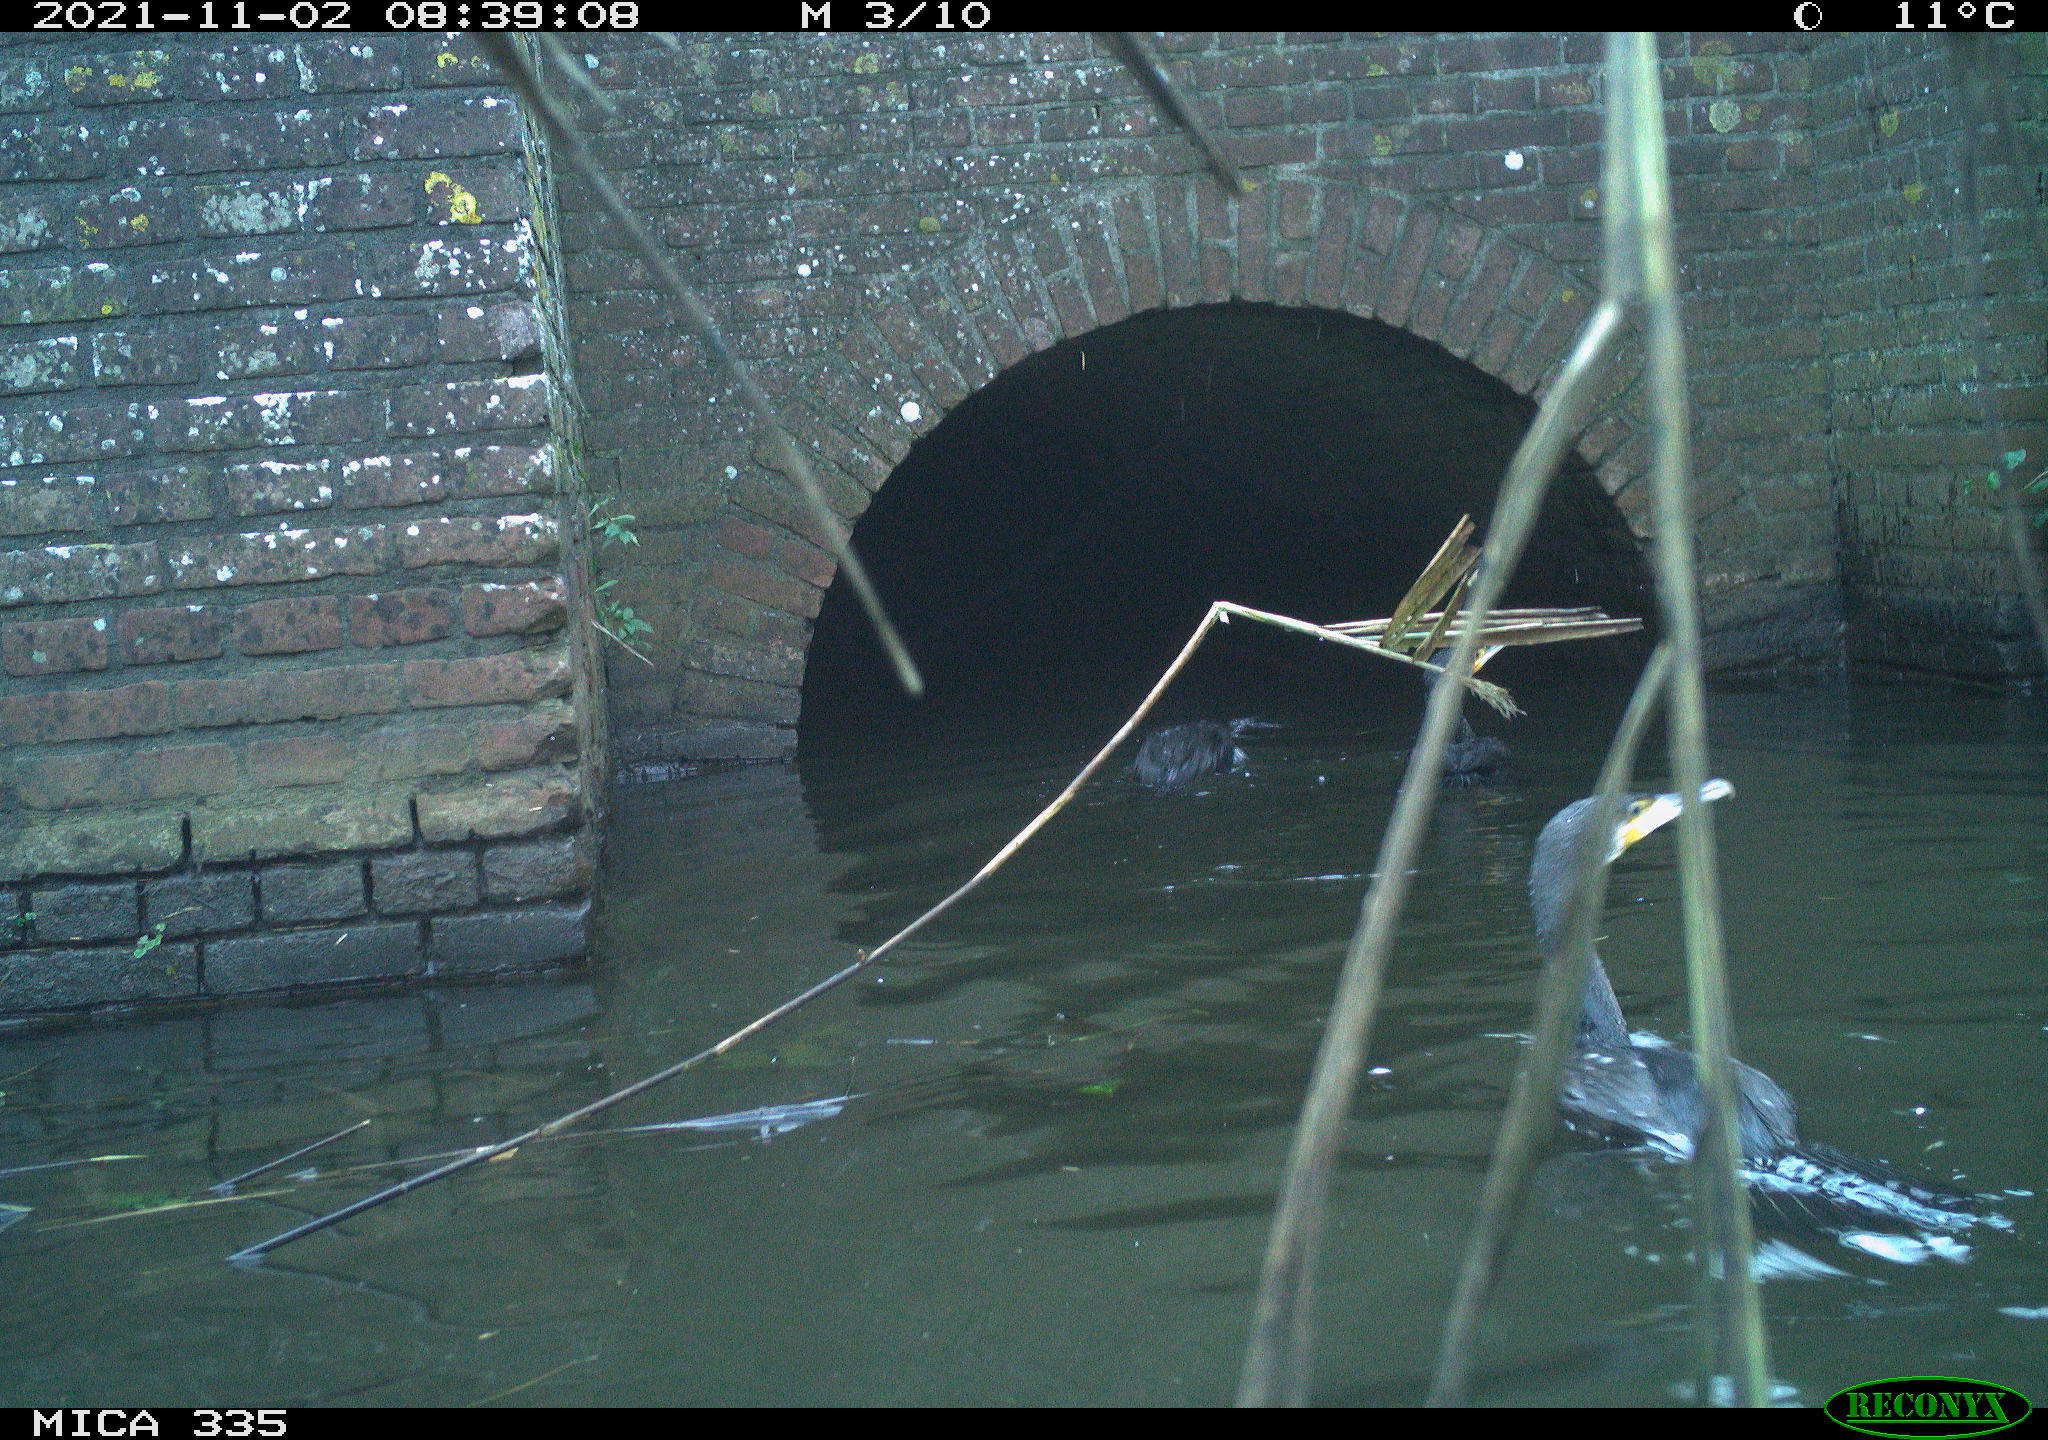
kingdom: Animalia
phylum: Chordata
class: Aves
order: Suliformes
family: Phalacrocoracidae
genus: Phalacrocorax
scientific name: Phalacrocorax carbo
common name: Great cormorant
